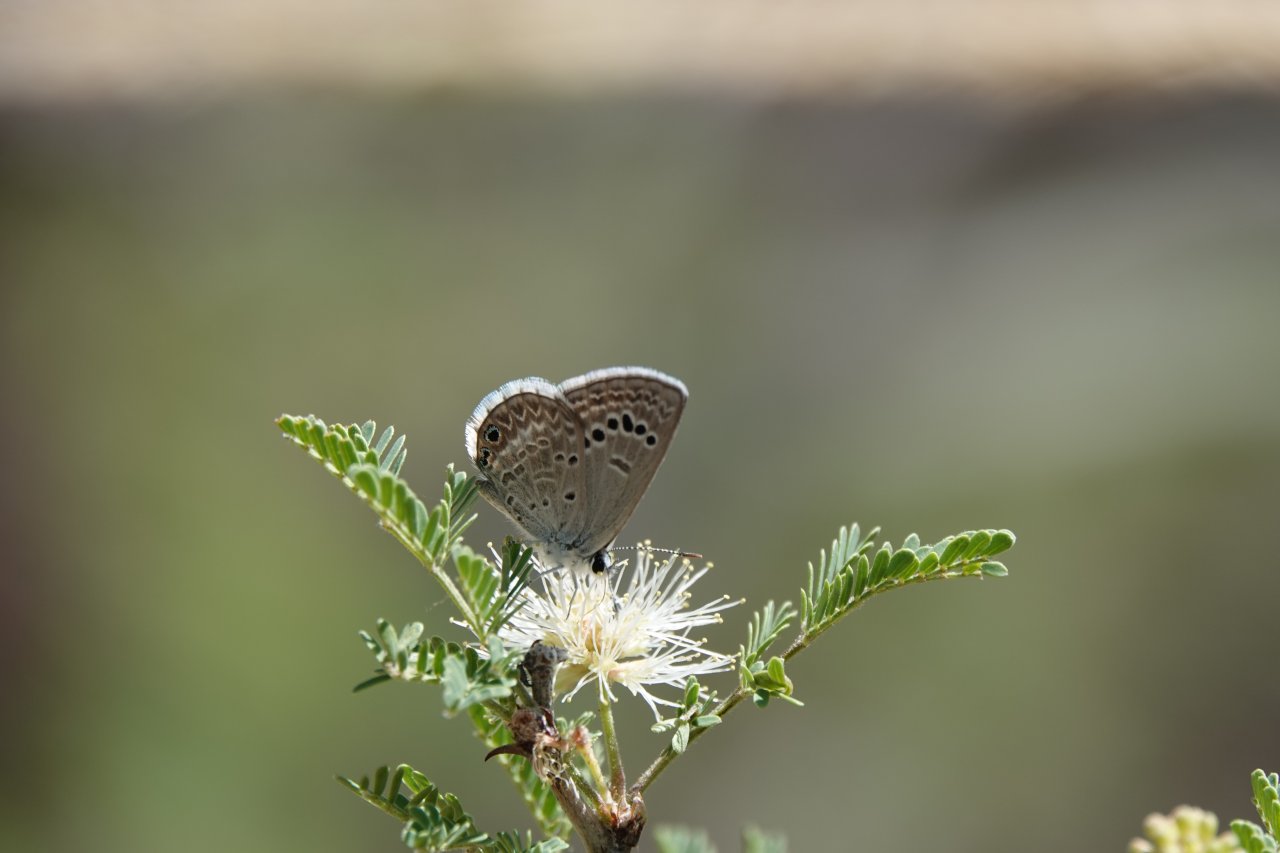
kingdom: Animalia
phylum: Arthropoda
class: Insecta
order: Lepidoptera
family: Lycaenidae
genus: Echinargus
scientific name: Echinargus isola
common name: Reakirt's Blue
